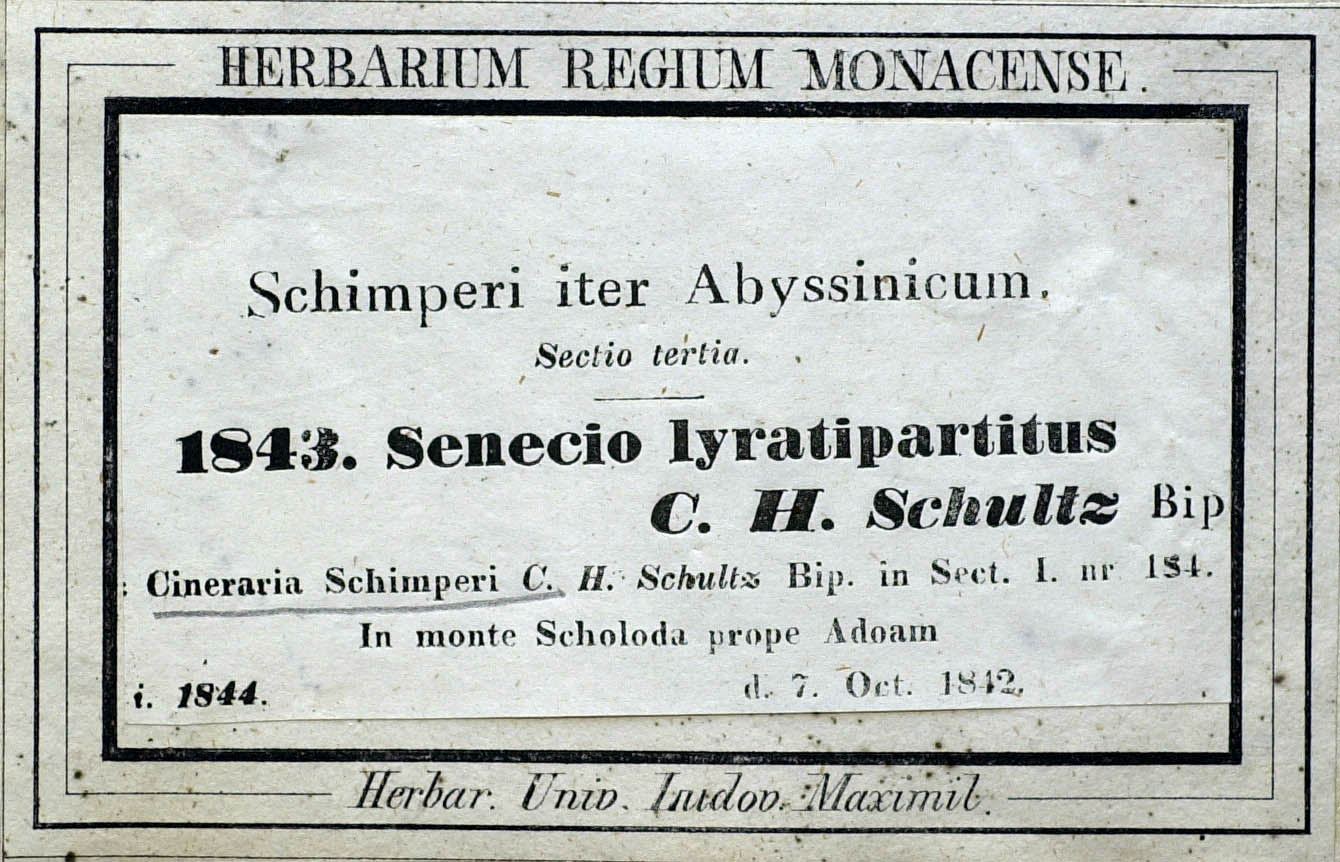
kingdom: Plantae
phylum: Tracheophyta
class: Magnoliopsida
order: Asterales
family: Asteraceae
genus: Senecio
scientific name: Senecio lyratus
